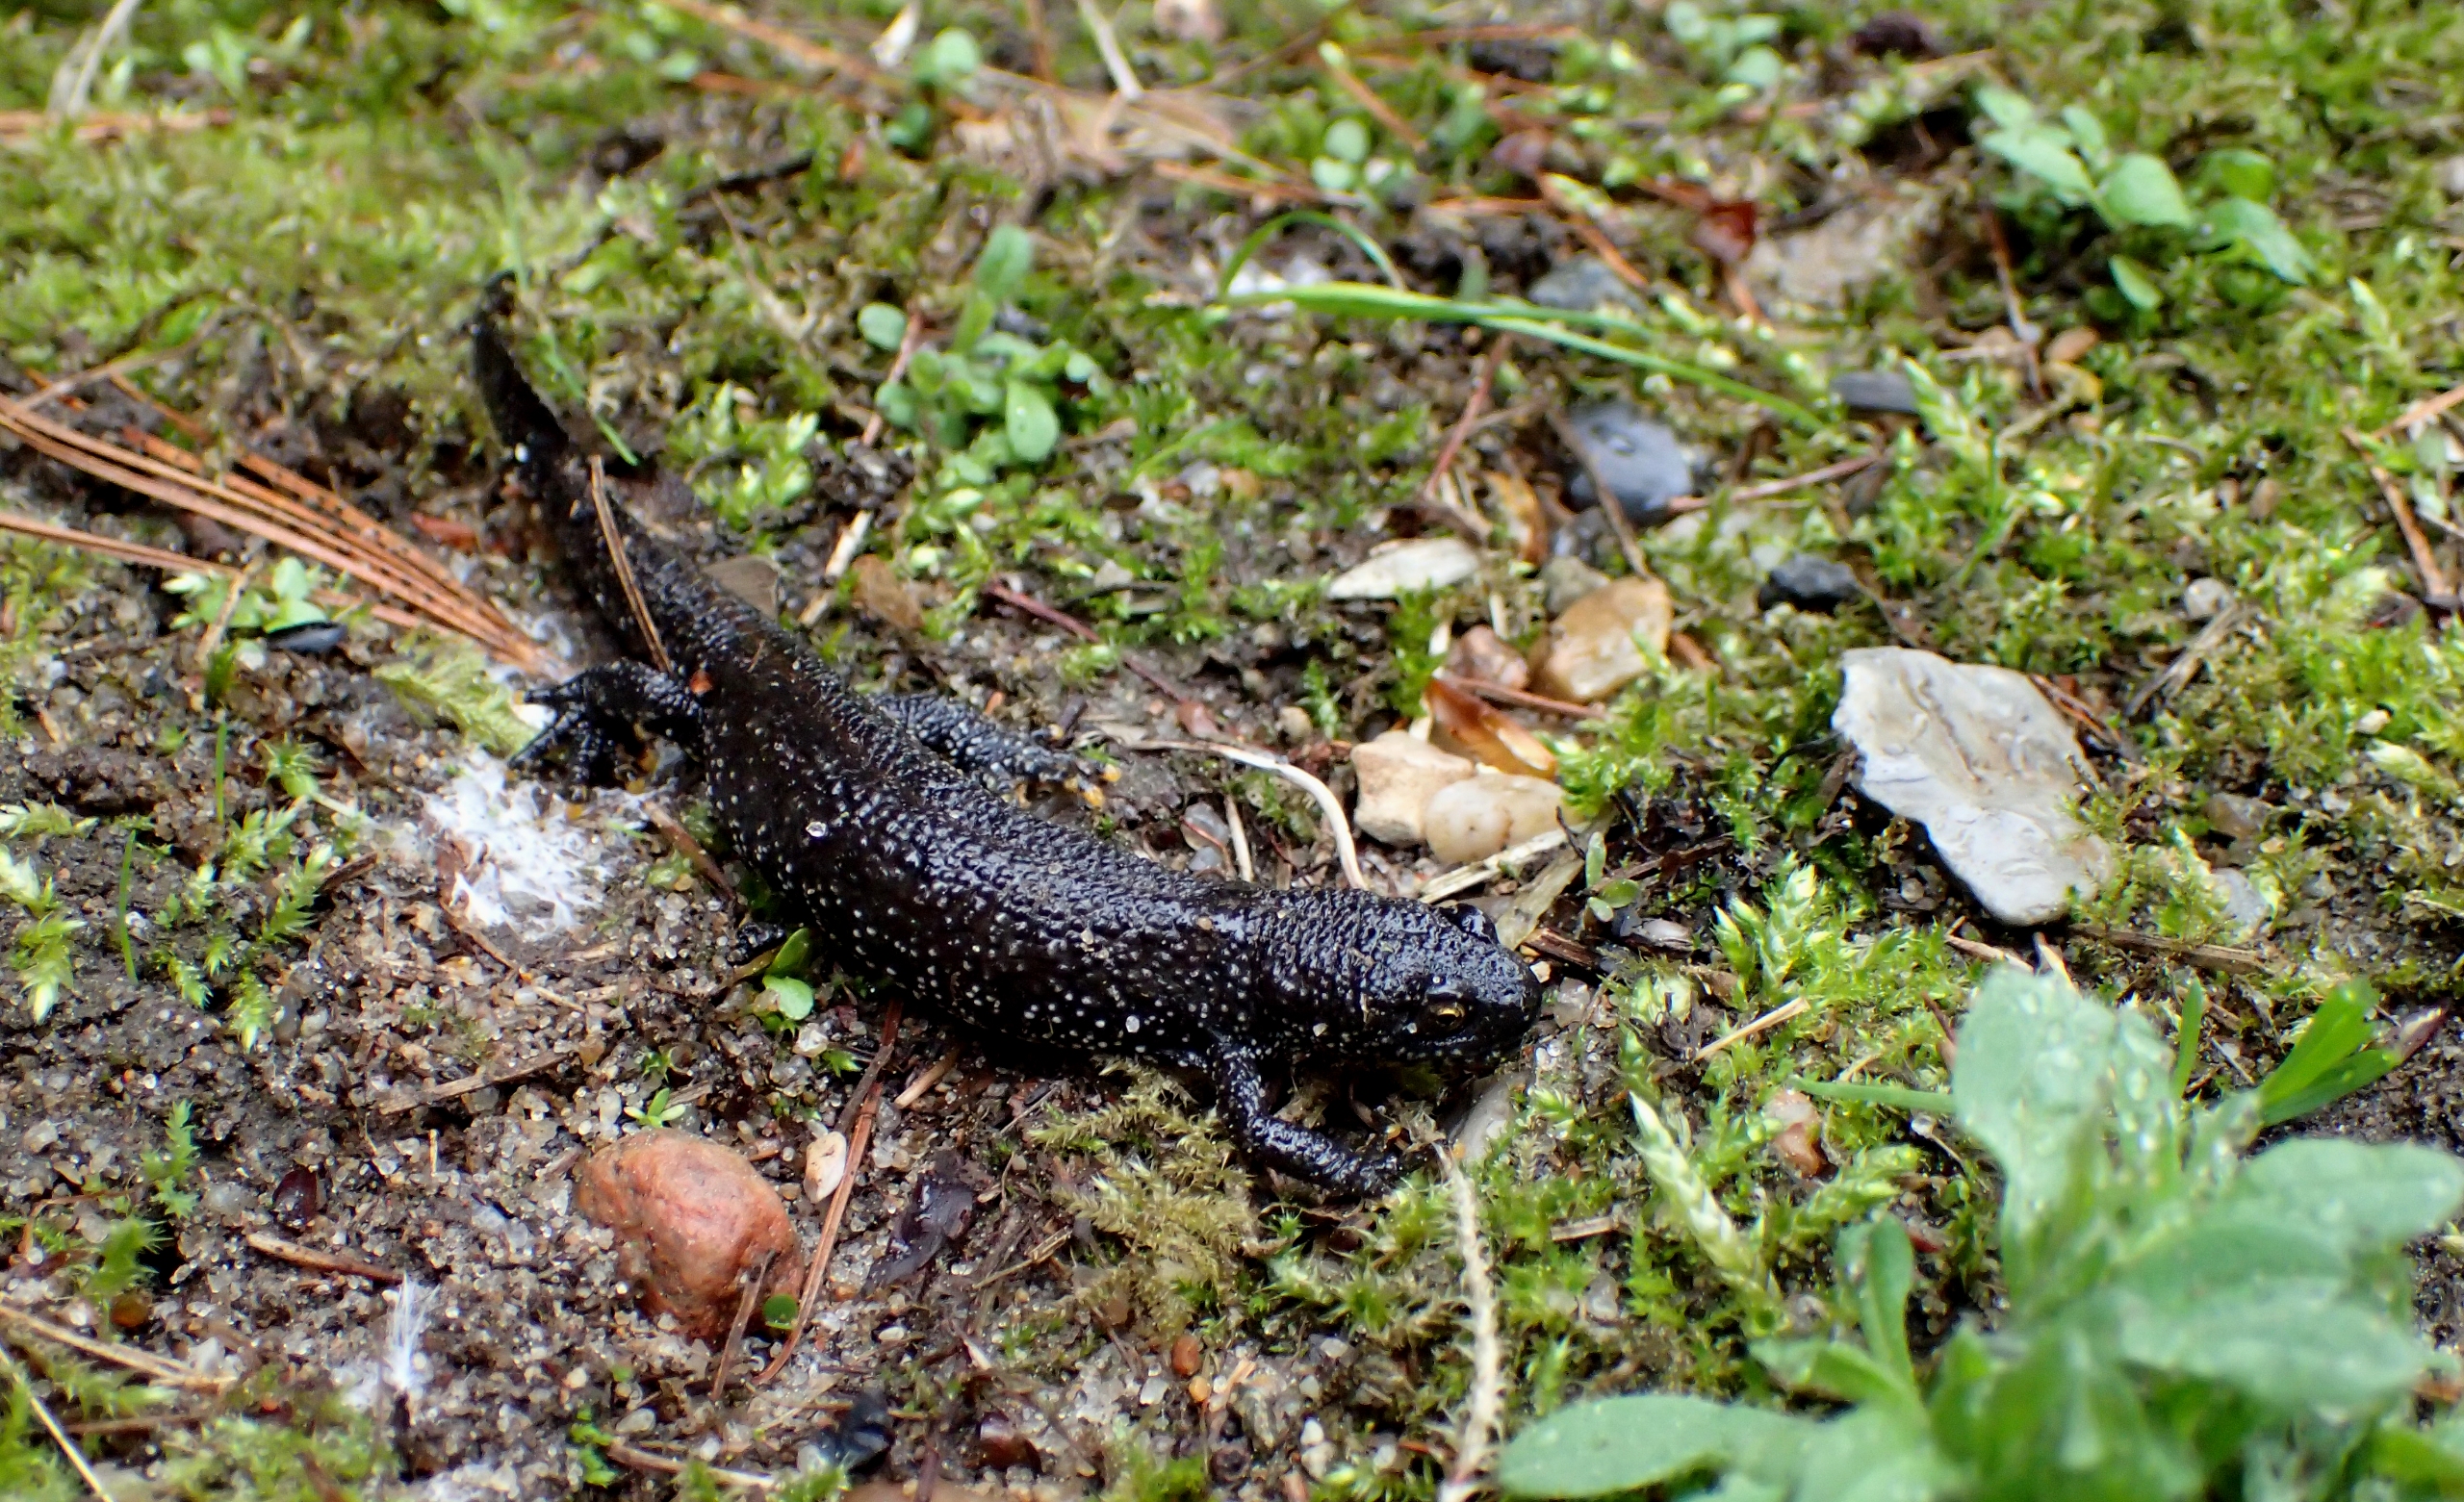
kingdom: Animalia
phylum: Chordata
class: Amphibia
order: Caudata
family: Salamandridae
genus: Triturus
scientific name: Triturus cristatus
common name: Stor vandsalamander
